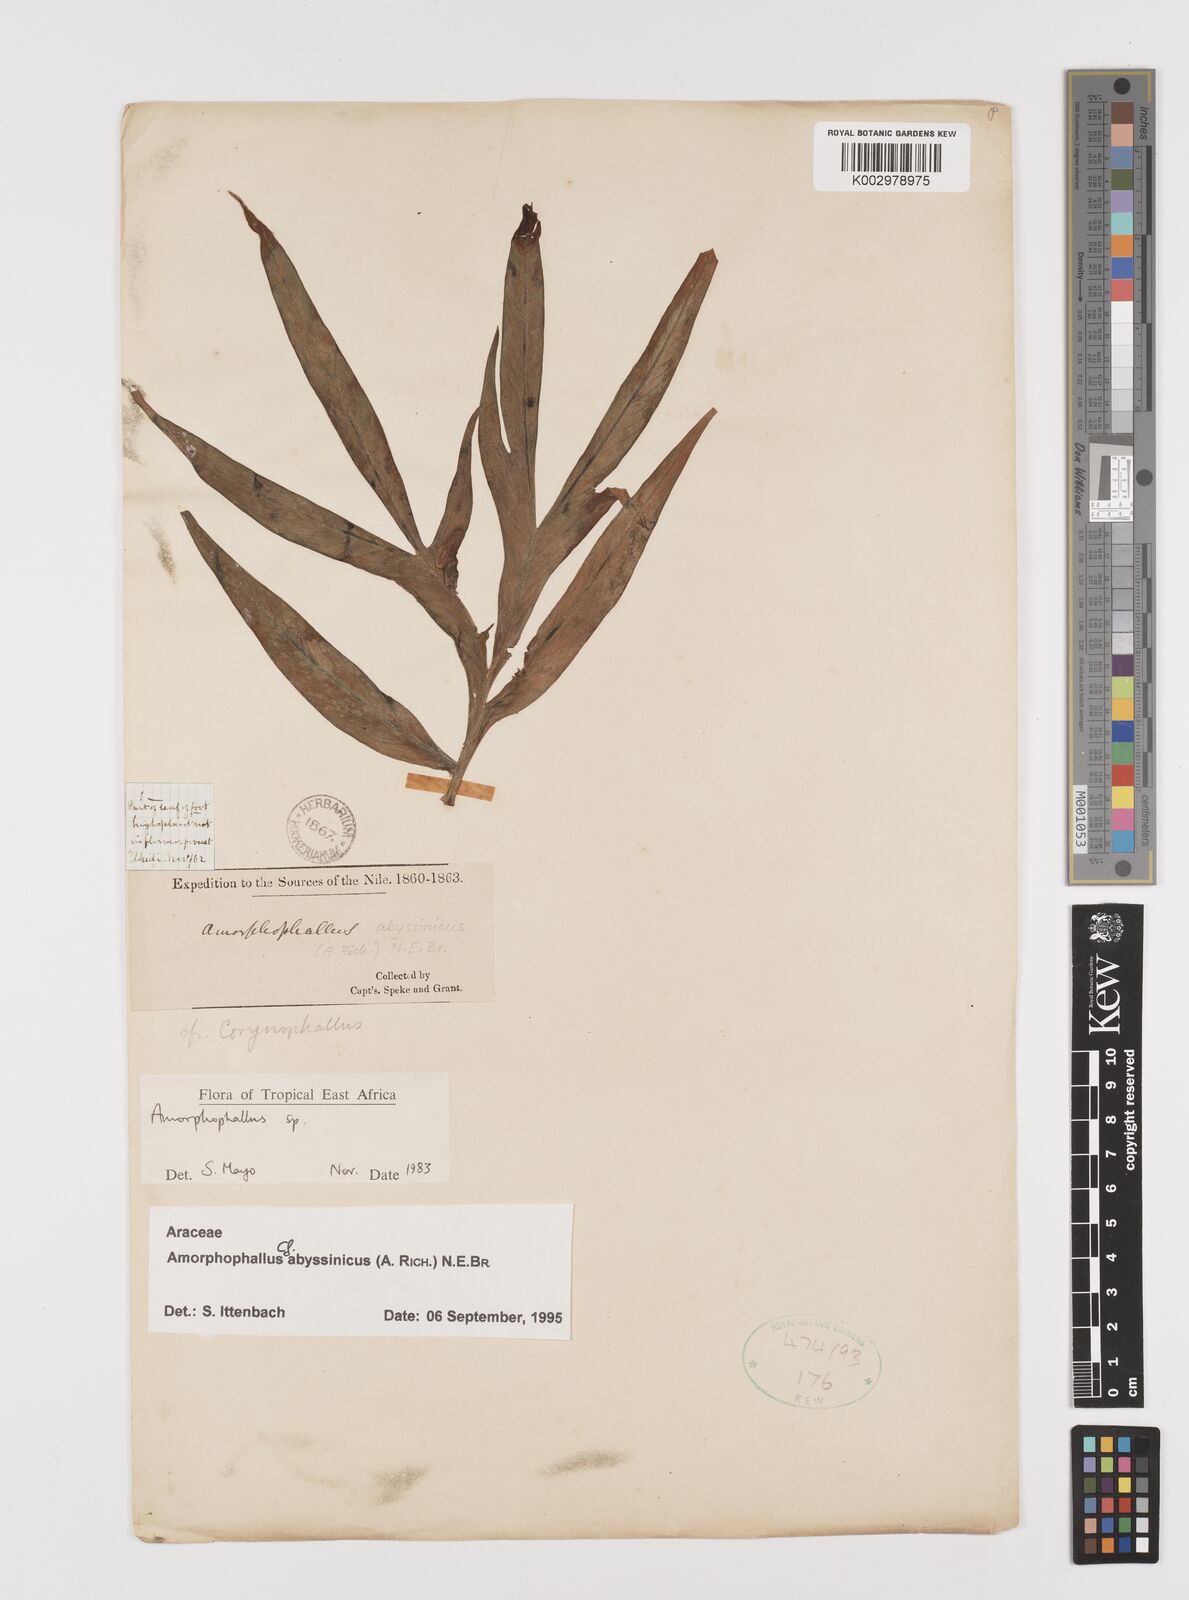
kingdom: Plantae
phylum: Tracheophyta
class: Liliopsida
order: Alismatales
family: Araceae
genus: Amorphophallus
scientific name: Amorphophallus abyssinicus
